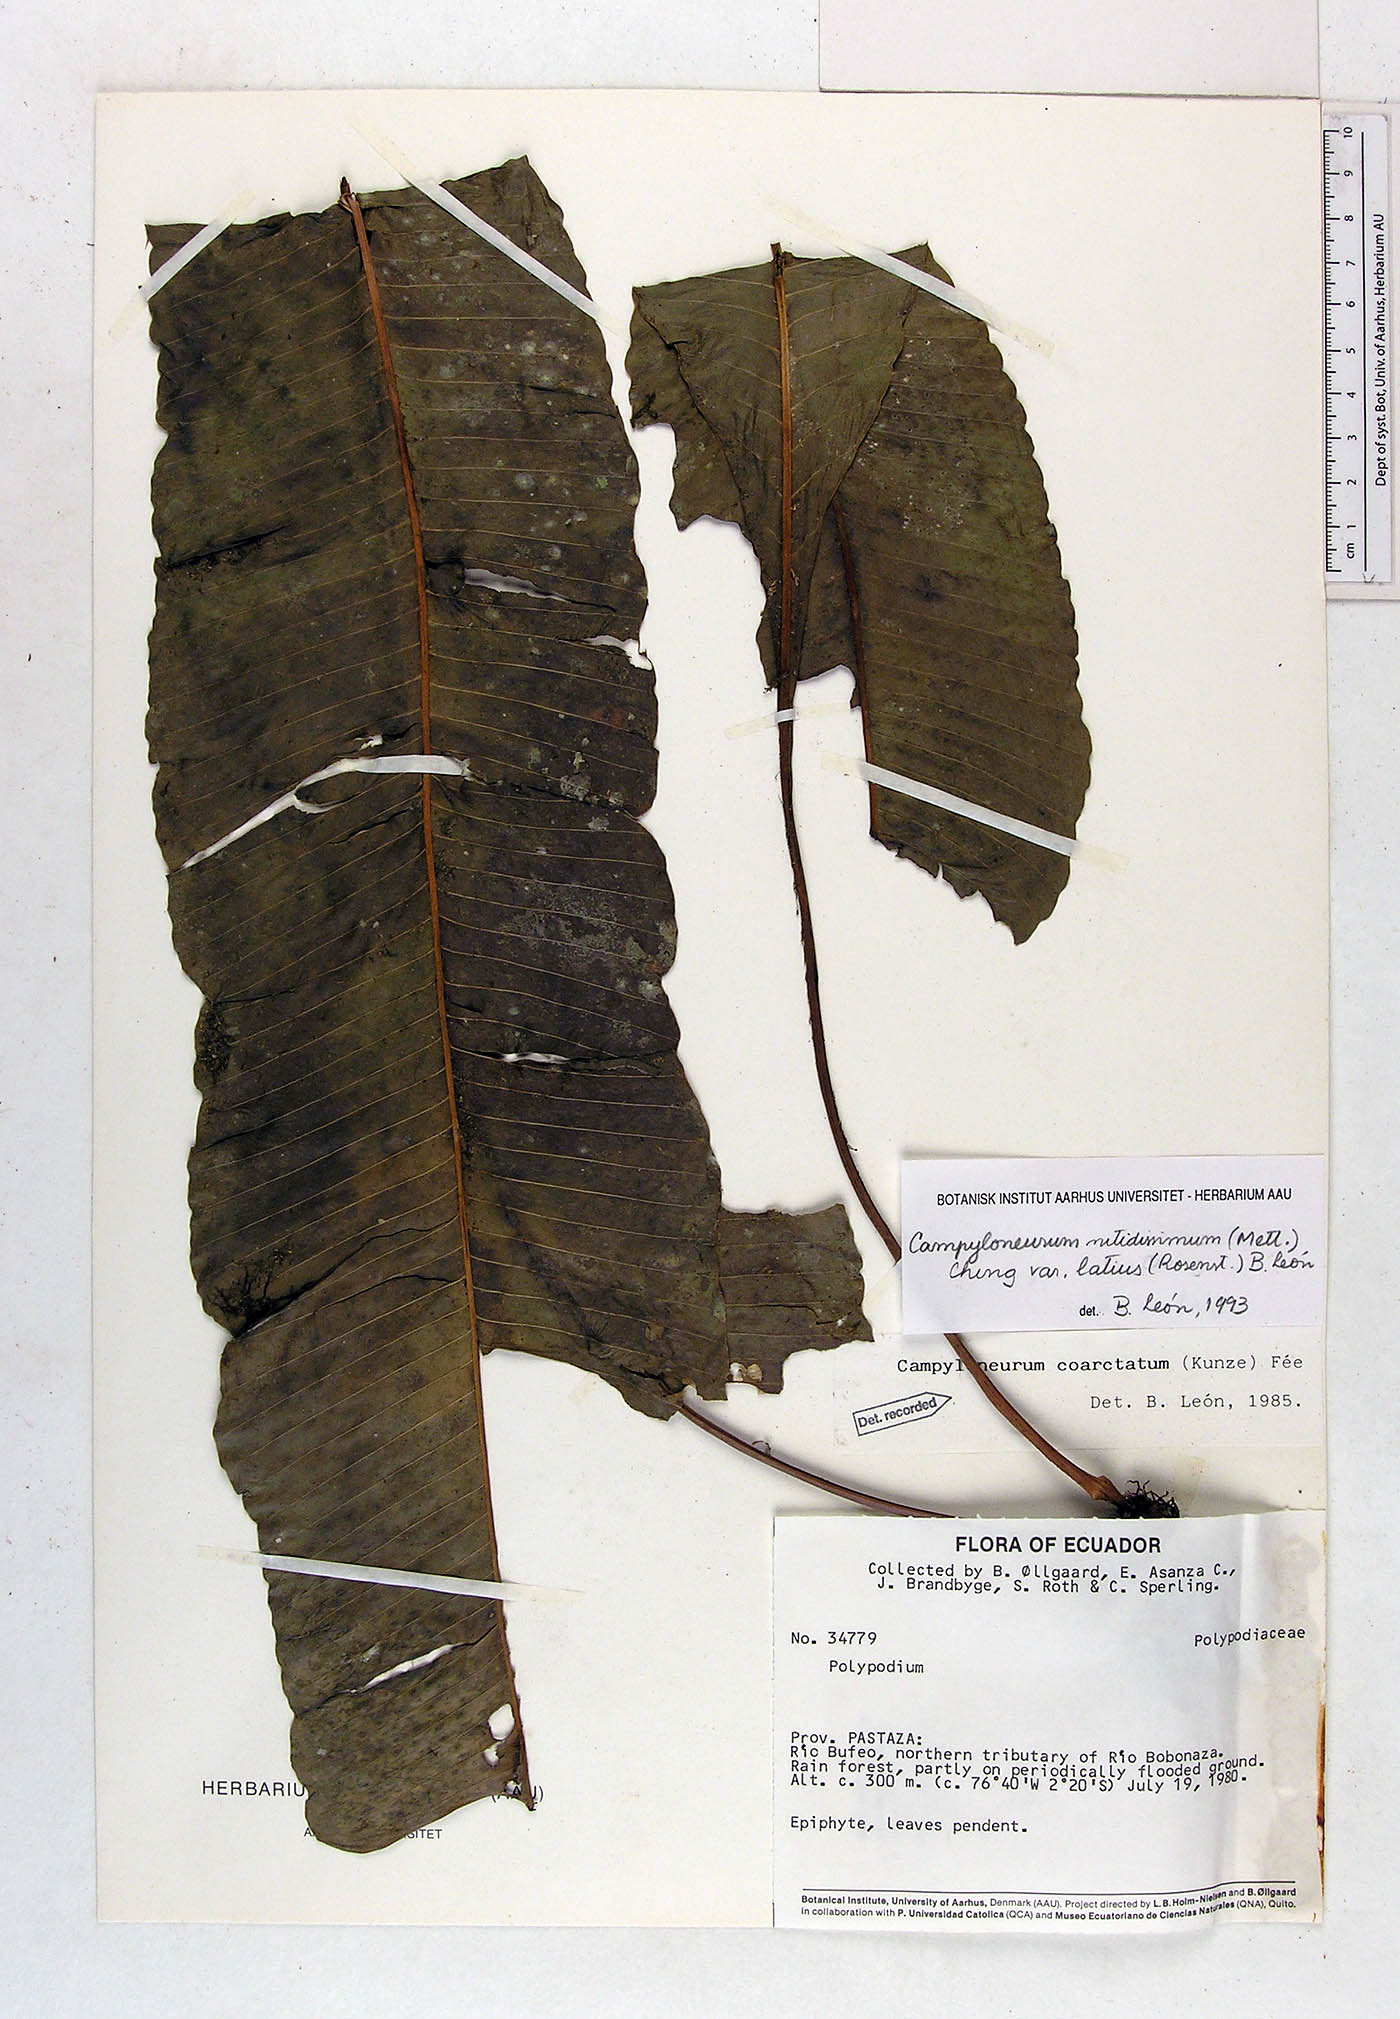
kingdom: Plantae
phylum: Tracheophyta
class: Polypodiopsida
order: Polypodiales
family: Polypodiaceae
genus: Campyloneurum
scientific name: Campyloneurum nitidissimum
